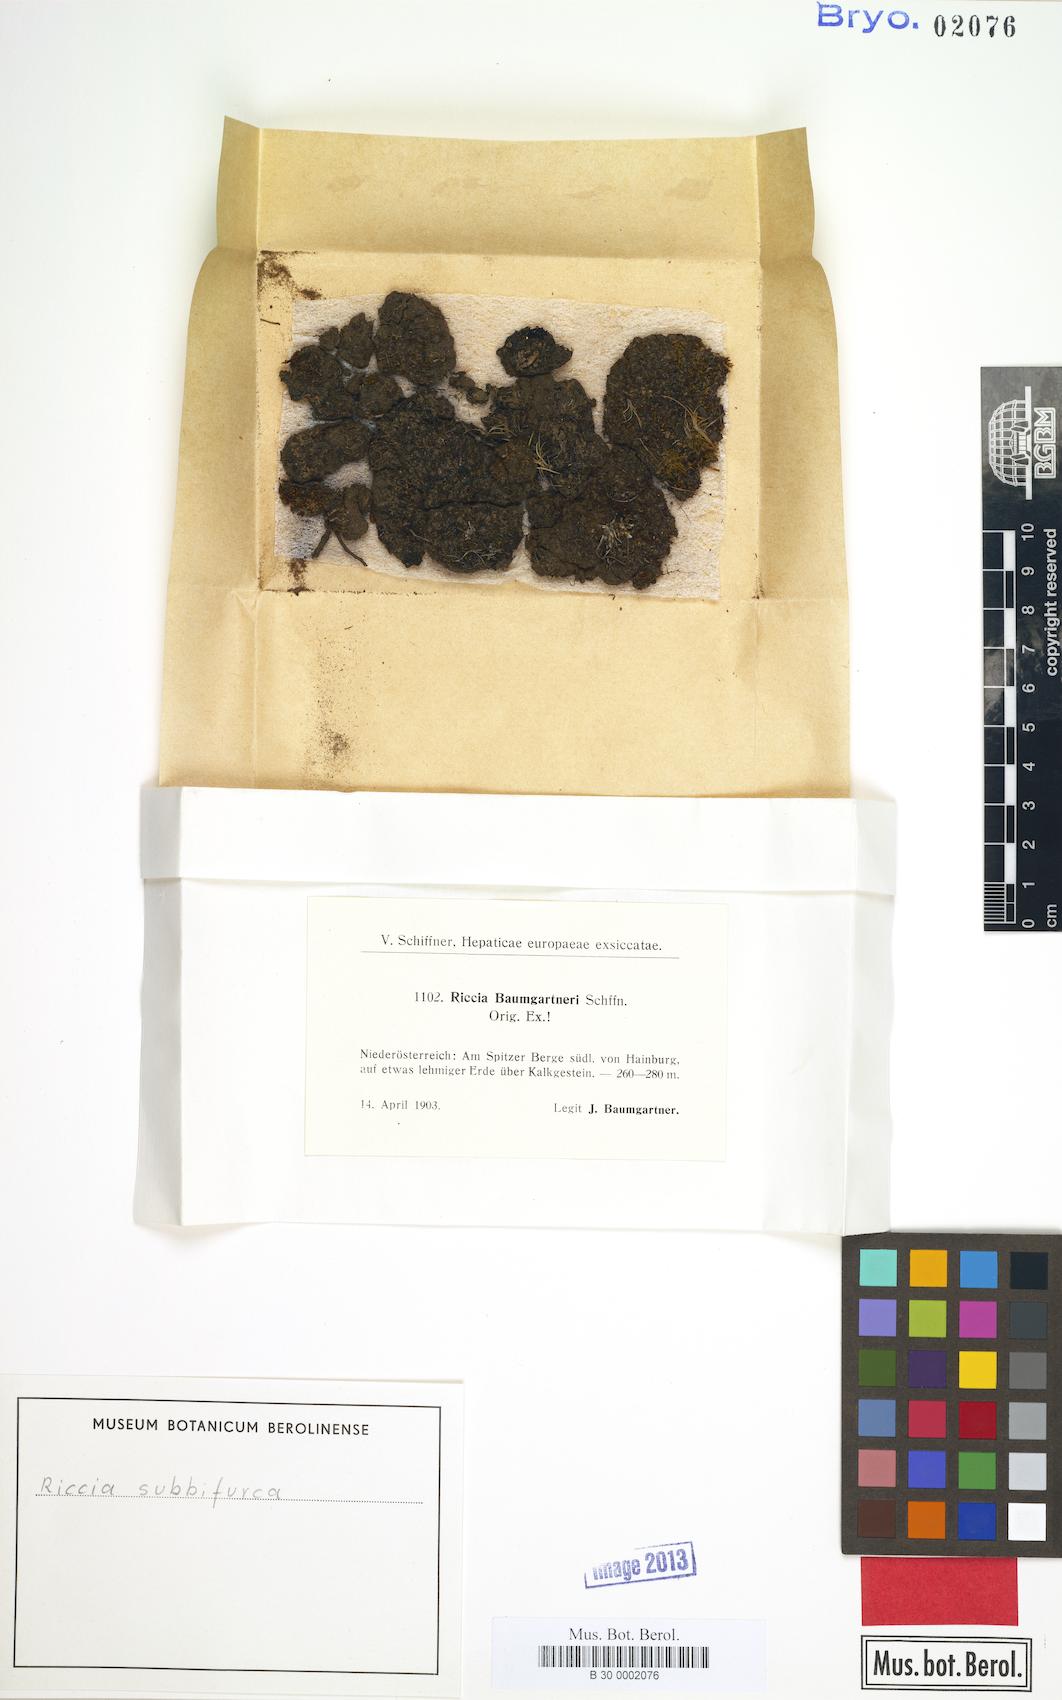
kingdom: Plantae
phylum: Marchantiophyta
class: Marchantiopsida
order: Marchantiales
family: Ricciaceae
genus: Riccia
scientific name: Riccia subbifurca
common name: Least crystalwort
